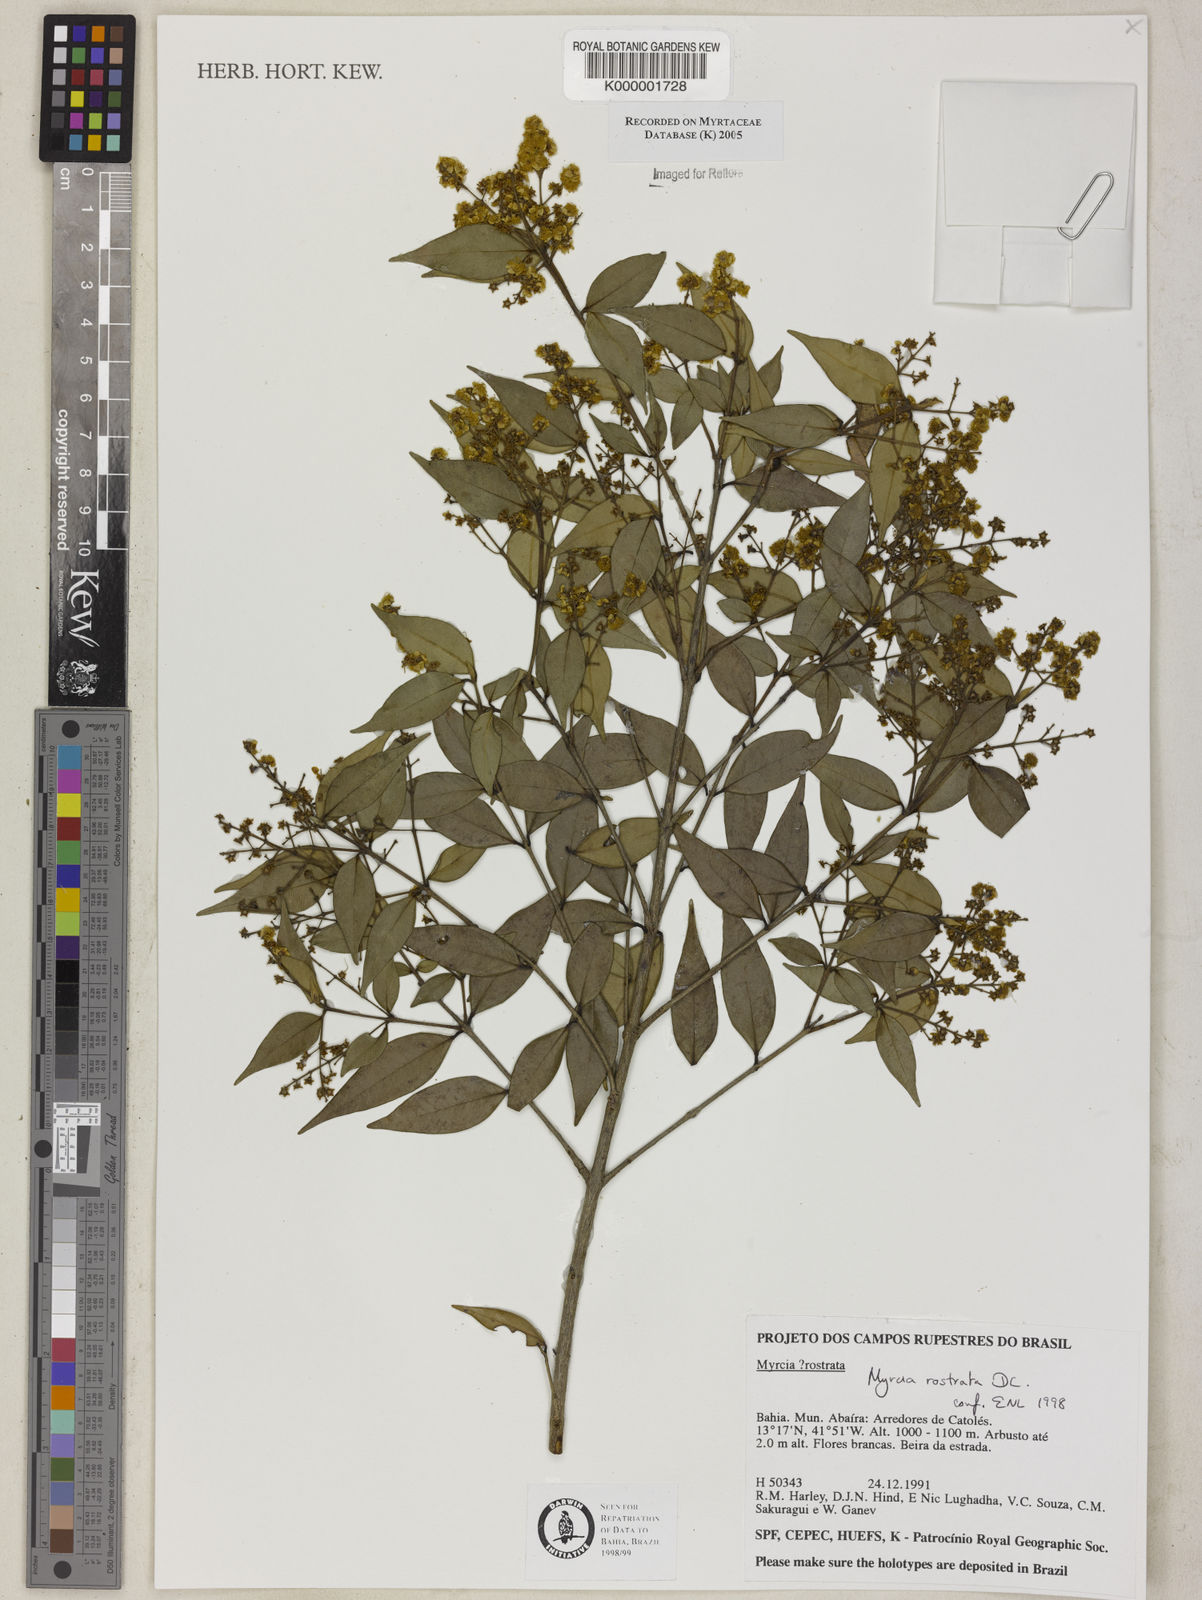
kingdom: Plantae
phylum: Tracheophyta
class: Magnoliopsida
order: Myrtales
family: Myrtaceae
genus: Myrcia
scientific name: Myrcia splendens
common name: Surinam cherry
